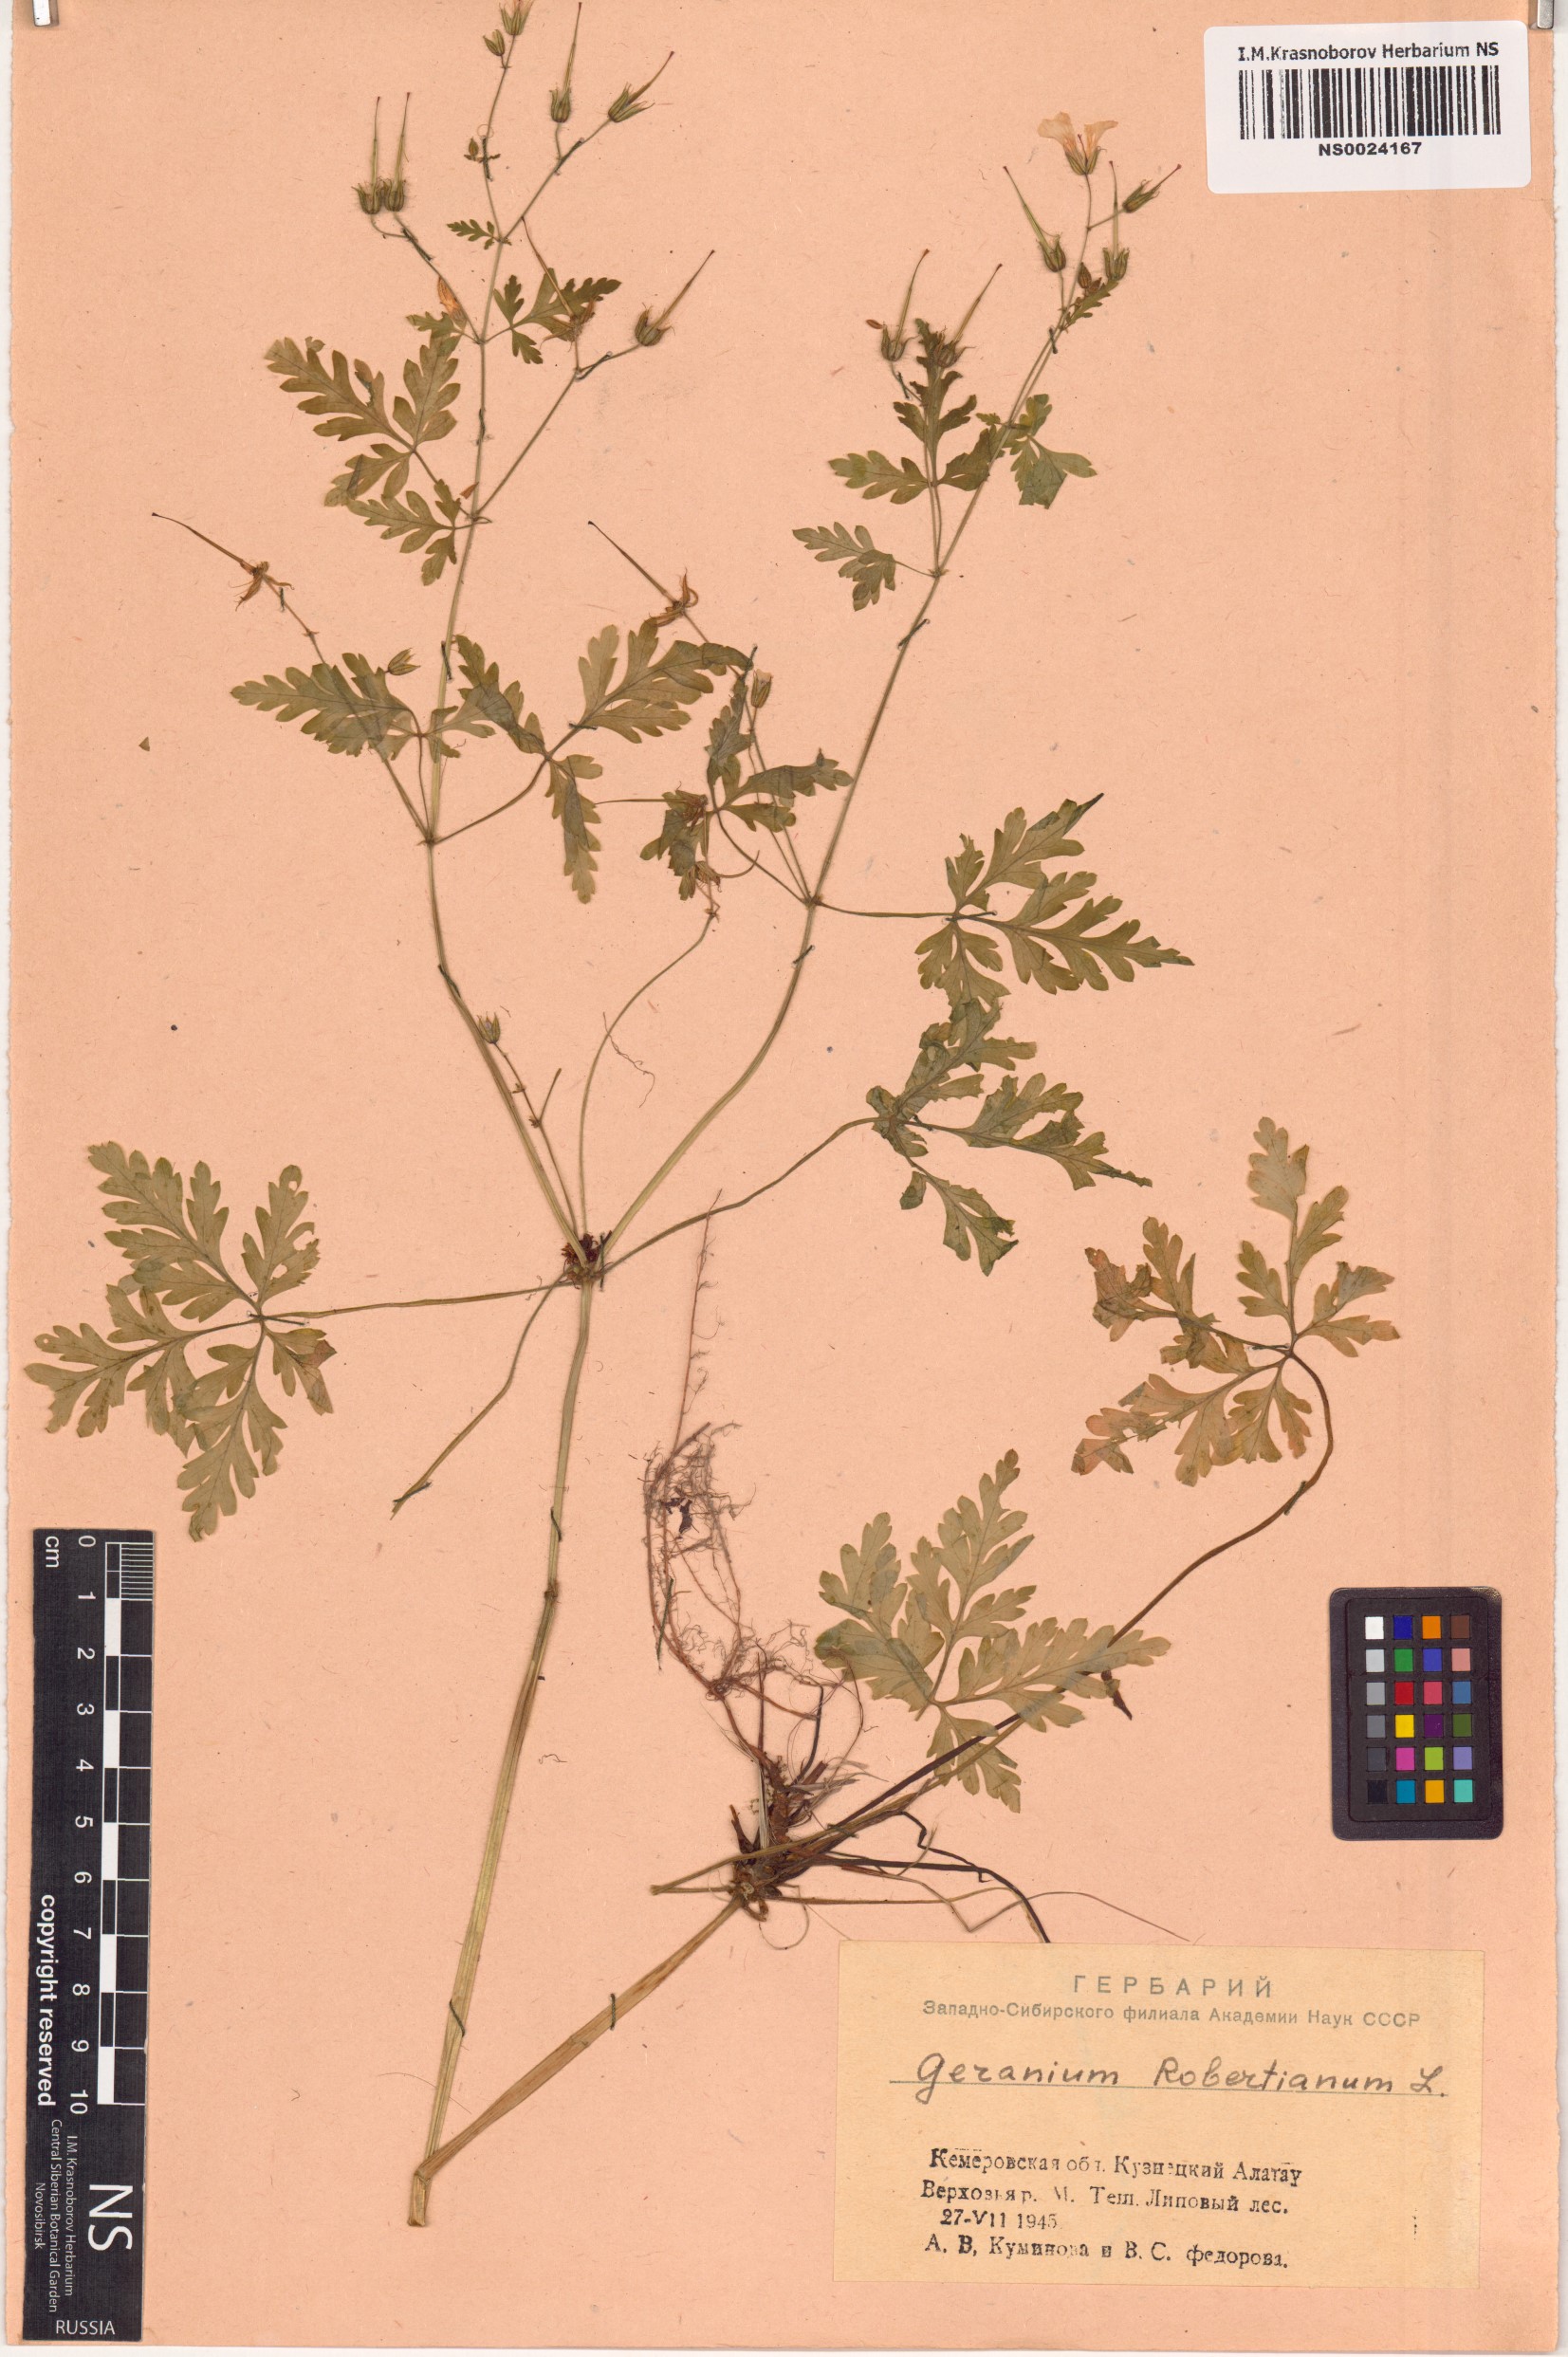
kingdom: Plantae
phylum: Tracheophyta
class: Magnoliopsida
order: Geraniales
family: Geraniaceae
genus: Geranium
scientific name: Geranium robertianum
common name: Herb-robert
